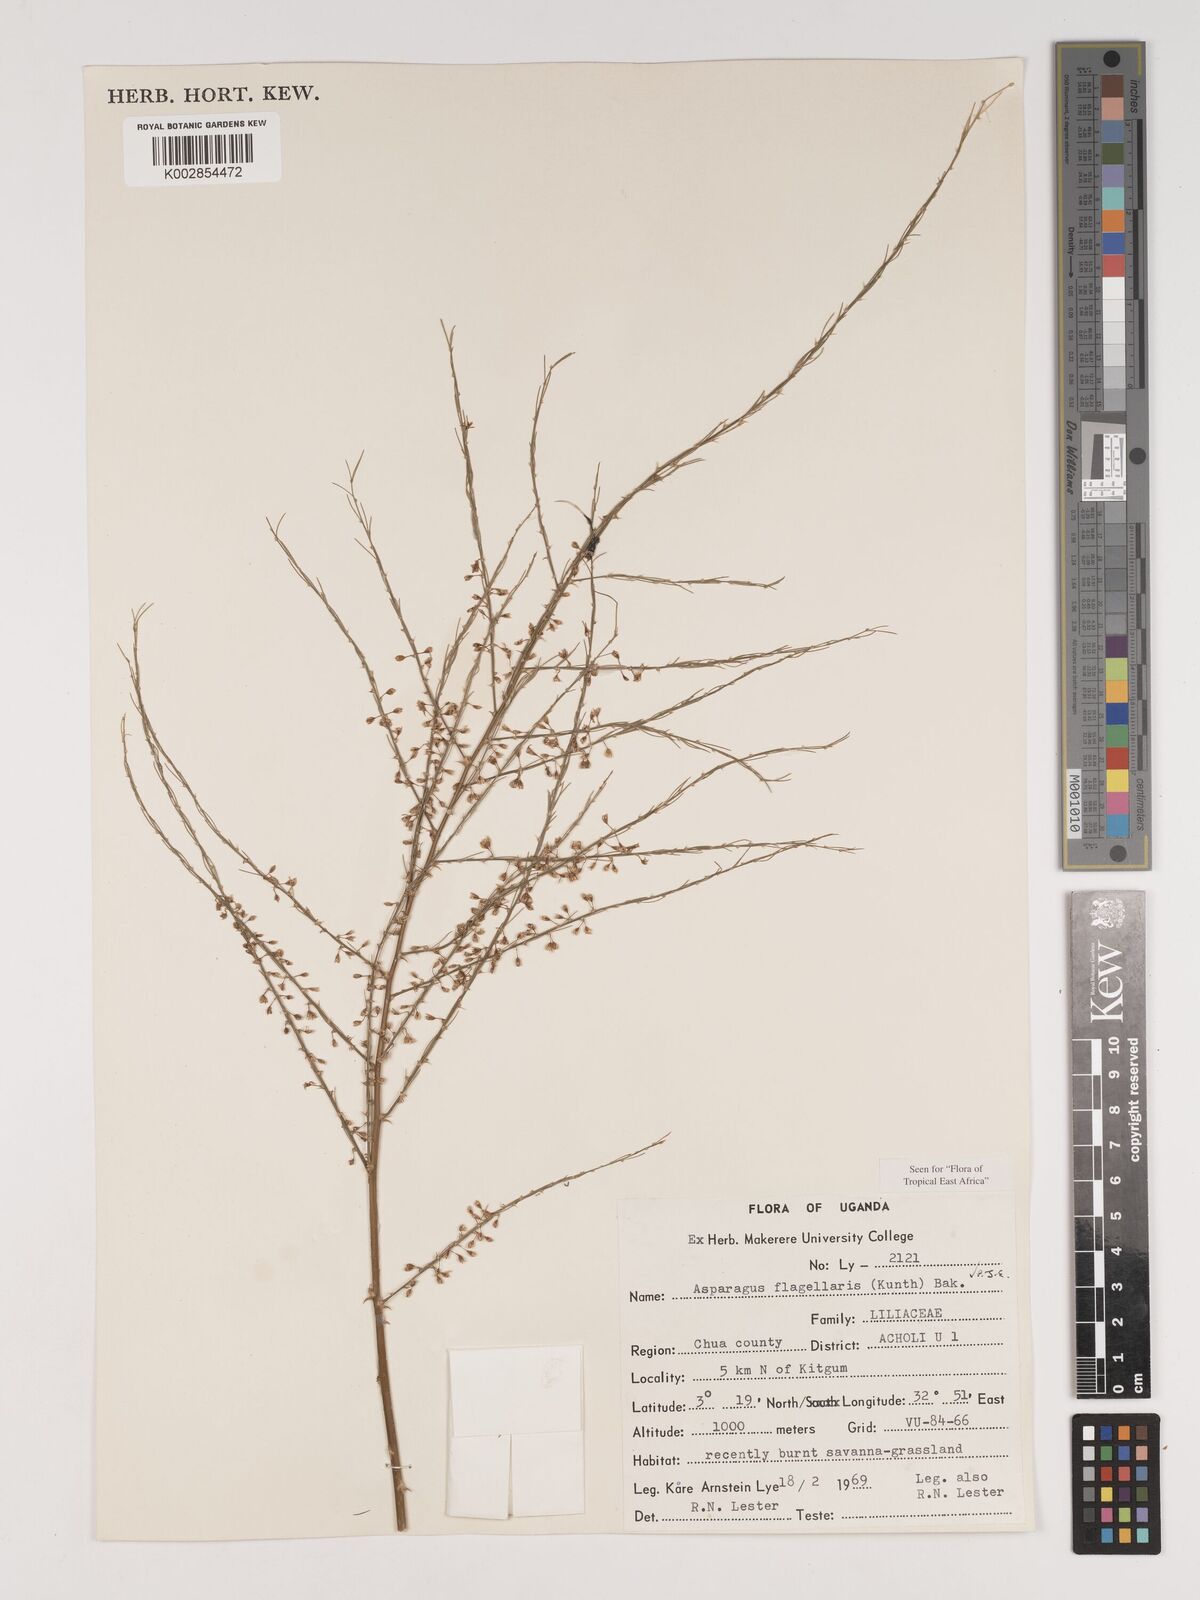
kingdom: Plantae
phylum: Tracheophyta
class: Liliopsida
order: Asparagales
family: Asparagaceae
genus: Asparagus
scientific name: Asparagus flagellaris
